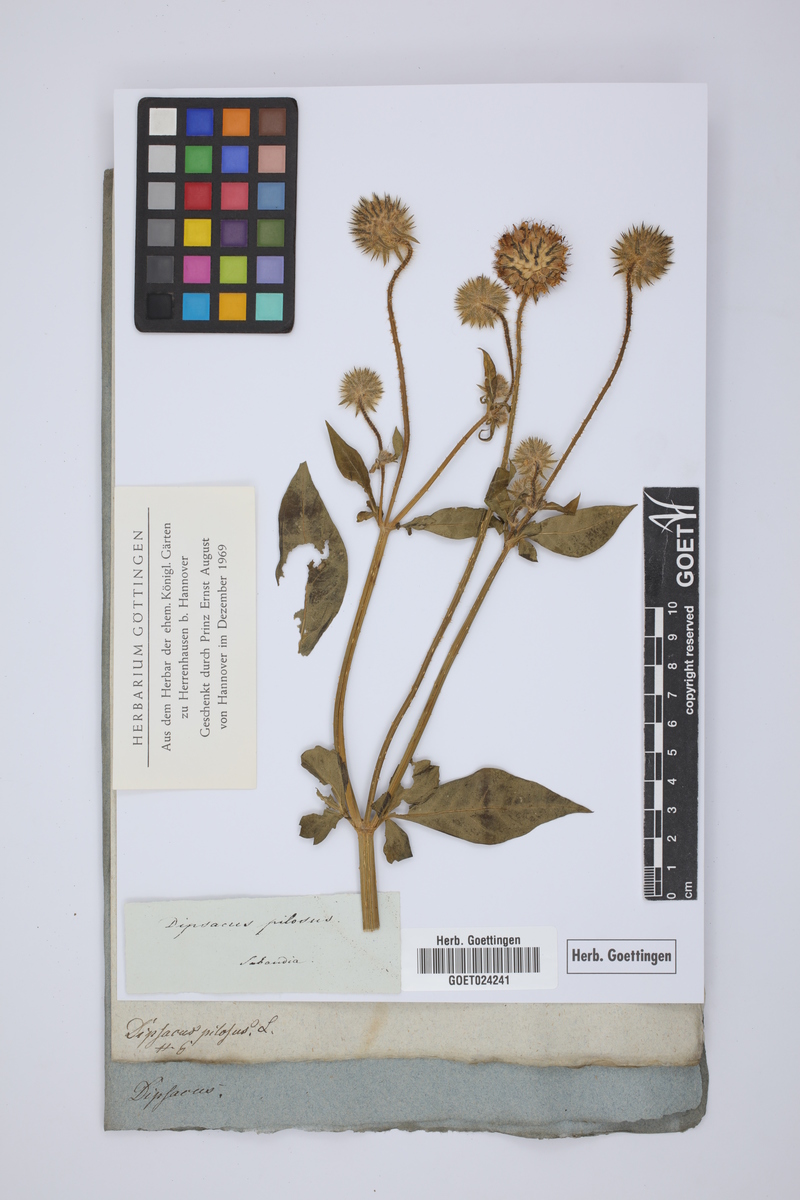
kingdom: Plantae
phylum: Tracheophyta
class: Magnoliopsida
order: Dipsacales
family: Caprifoliaceae
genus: Dipsacus
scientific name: Dipsacus pilosus
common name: Small teasel
